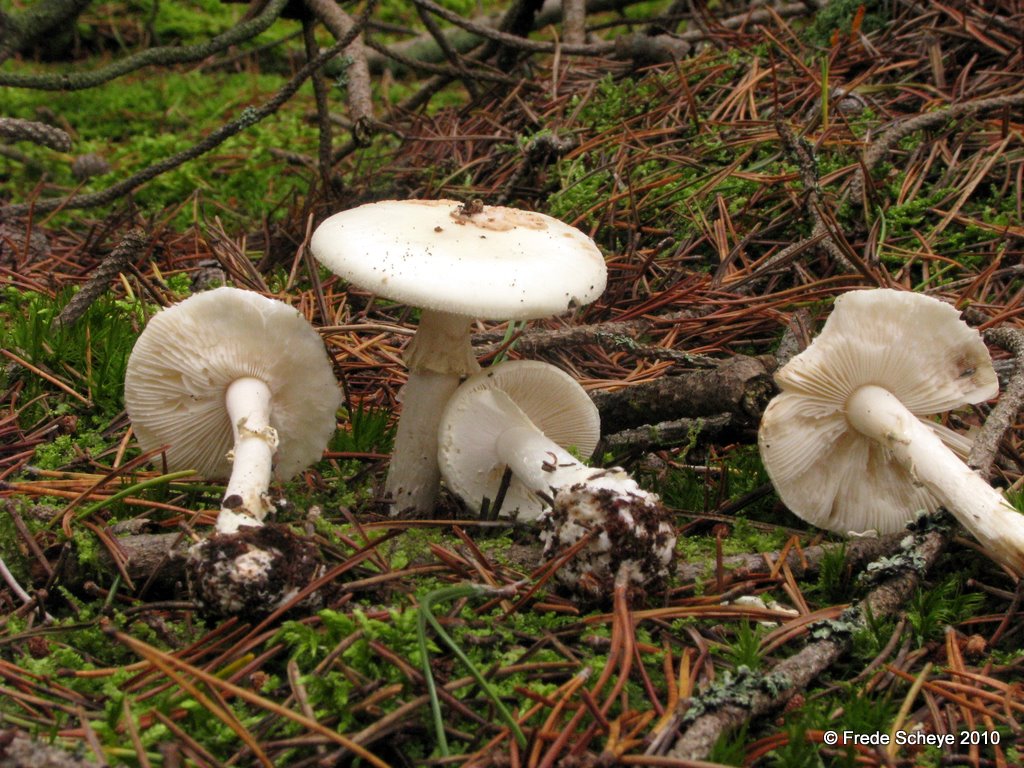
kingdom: Fungi
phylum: Basidiomycota
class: Agaricomycetes
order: Agaricales
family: Amanitaceae
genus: Amanita
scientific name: Amanita citrina
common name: False death-cap
